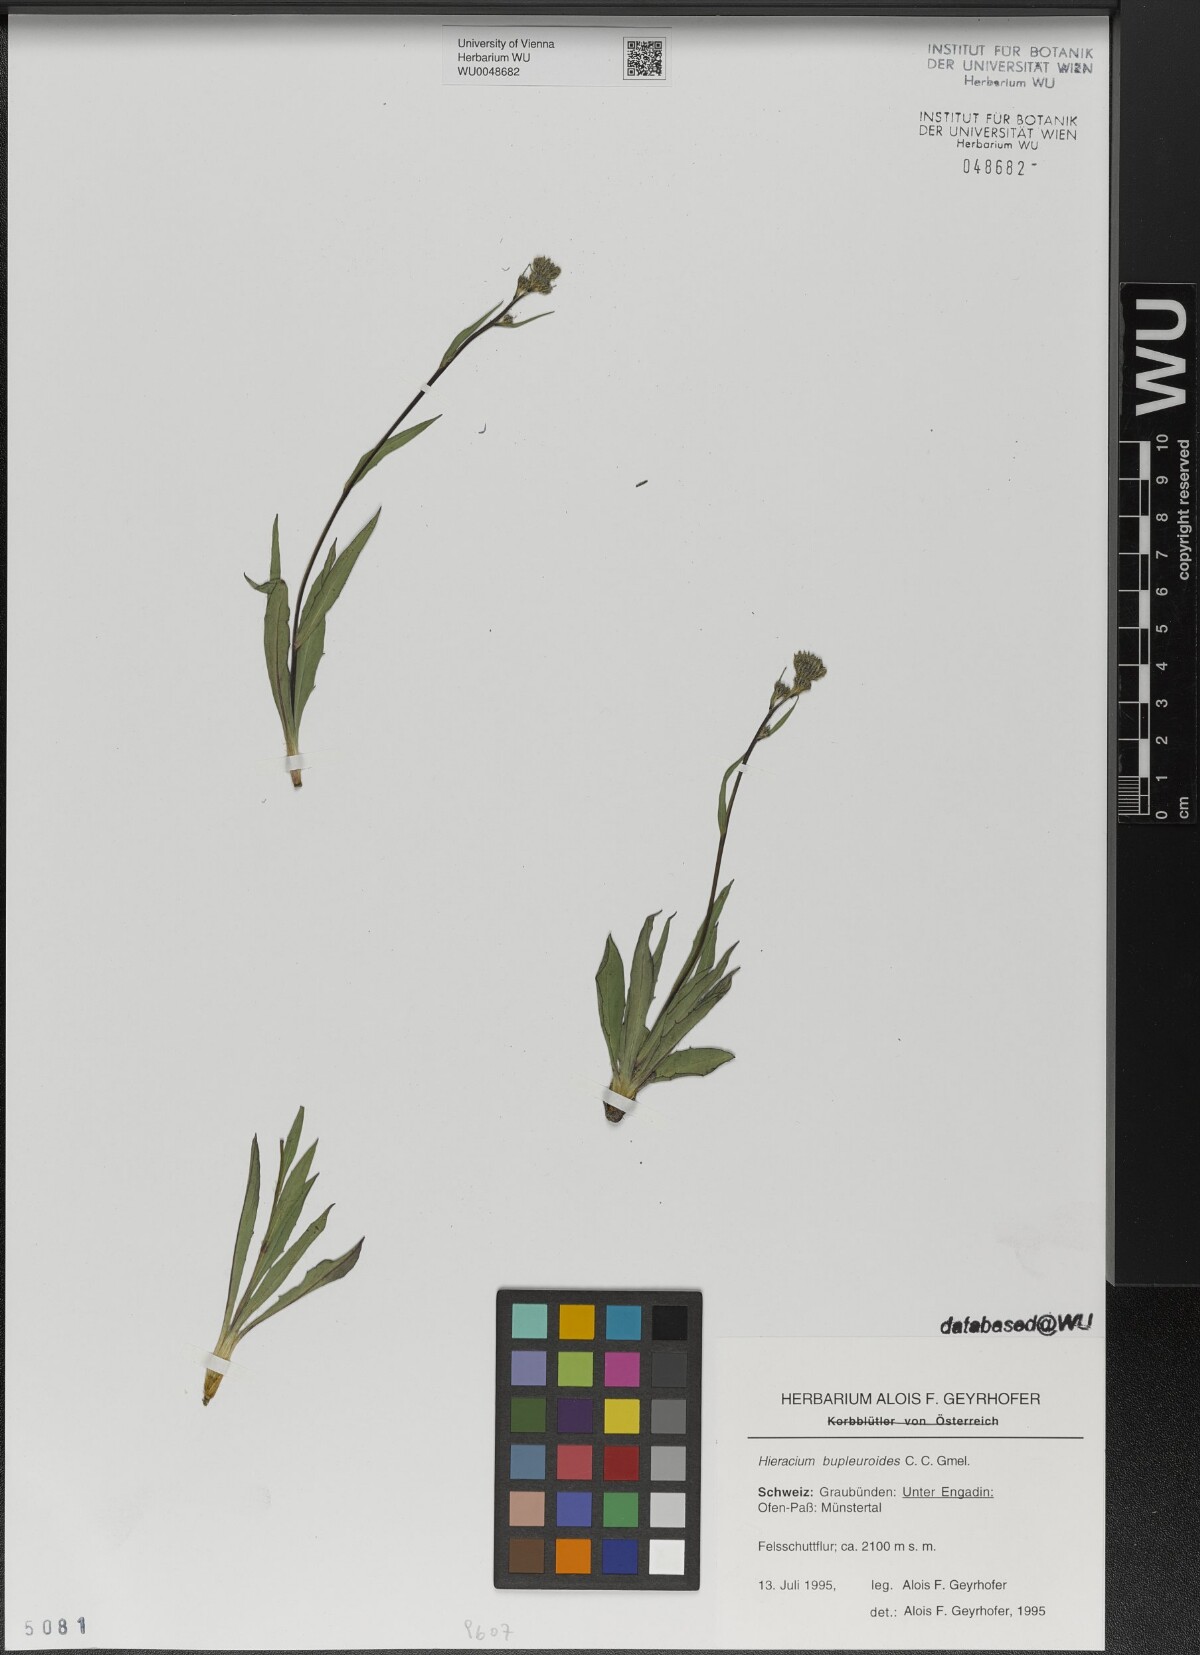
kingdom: Plantae
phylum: Tracheophyta
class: Magnoliopsida
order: Asterales
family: Asteraceae
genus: Hieracium
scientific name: Hieracium bupleuroides
